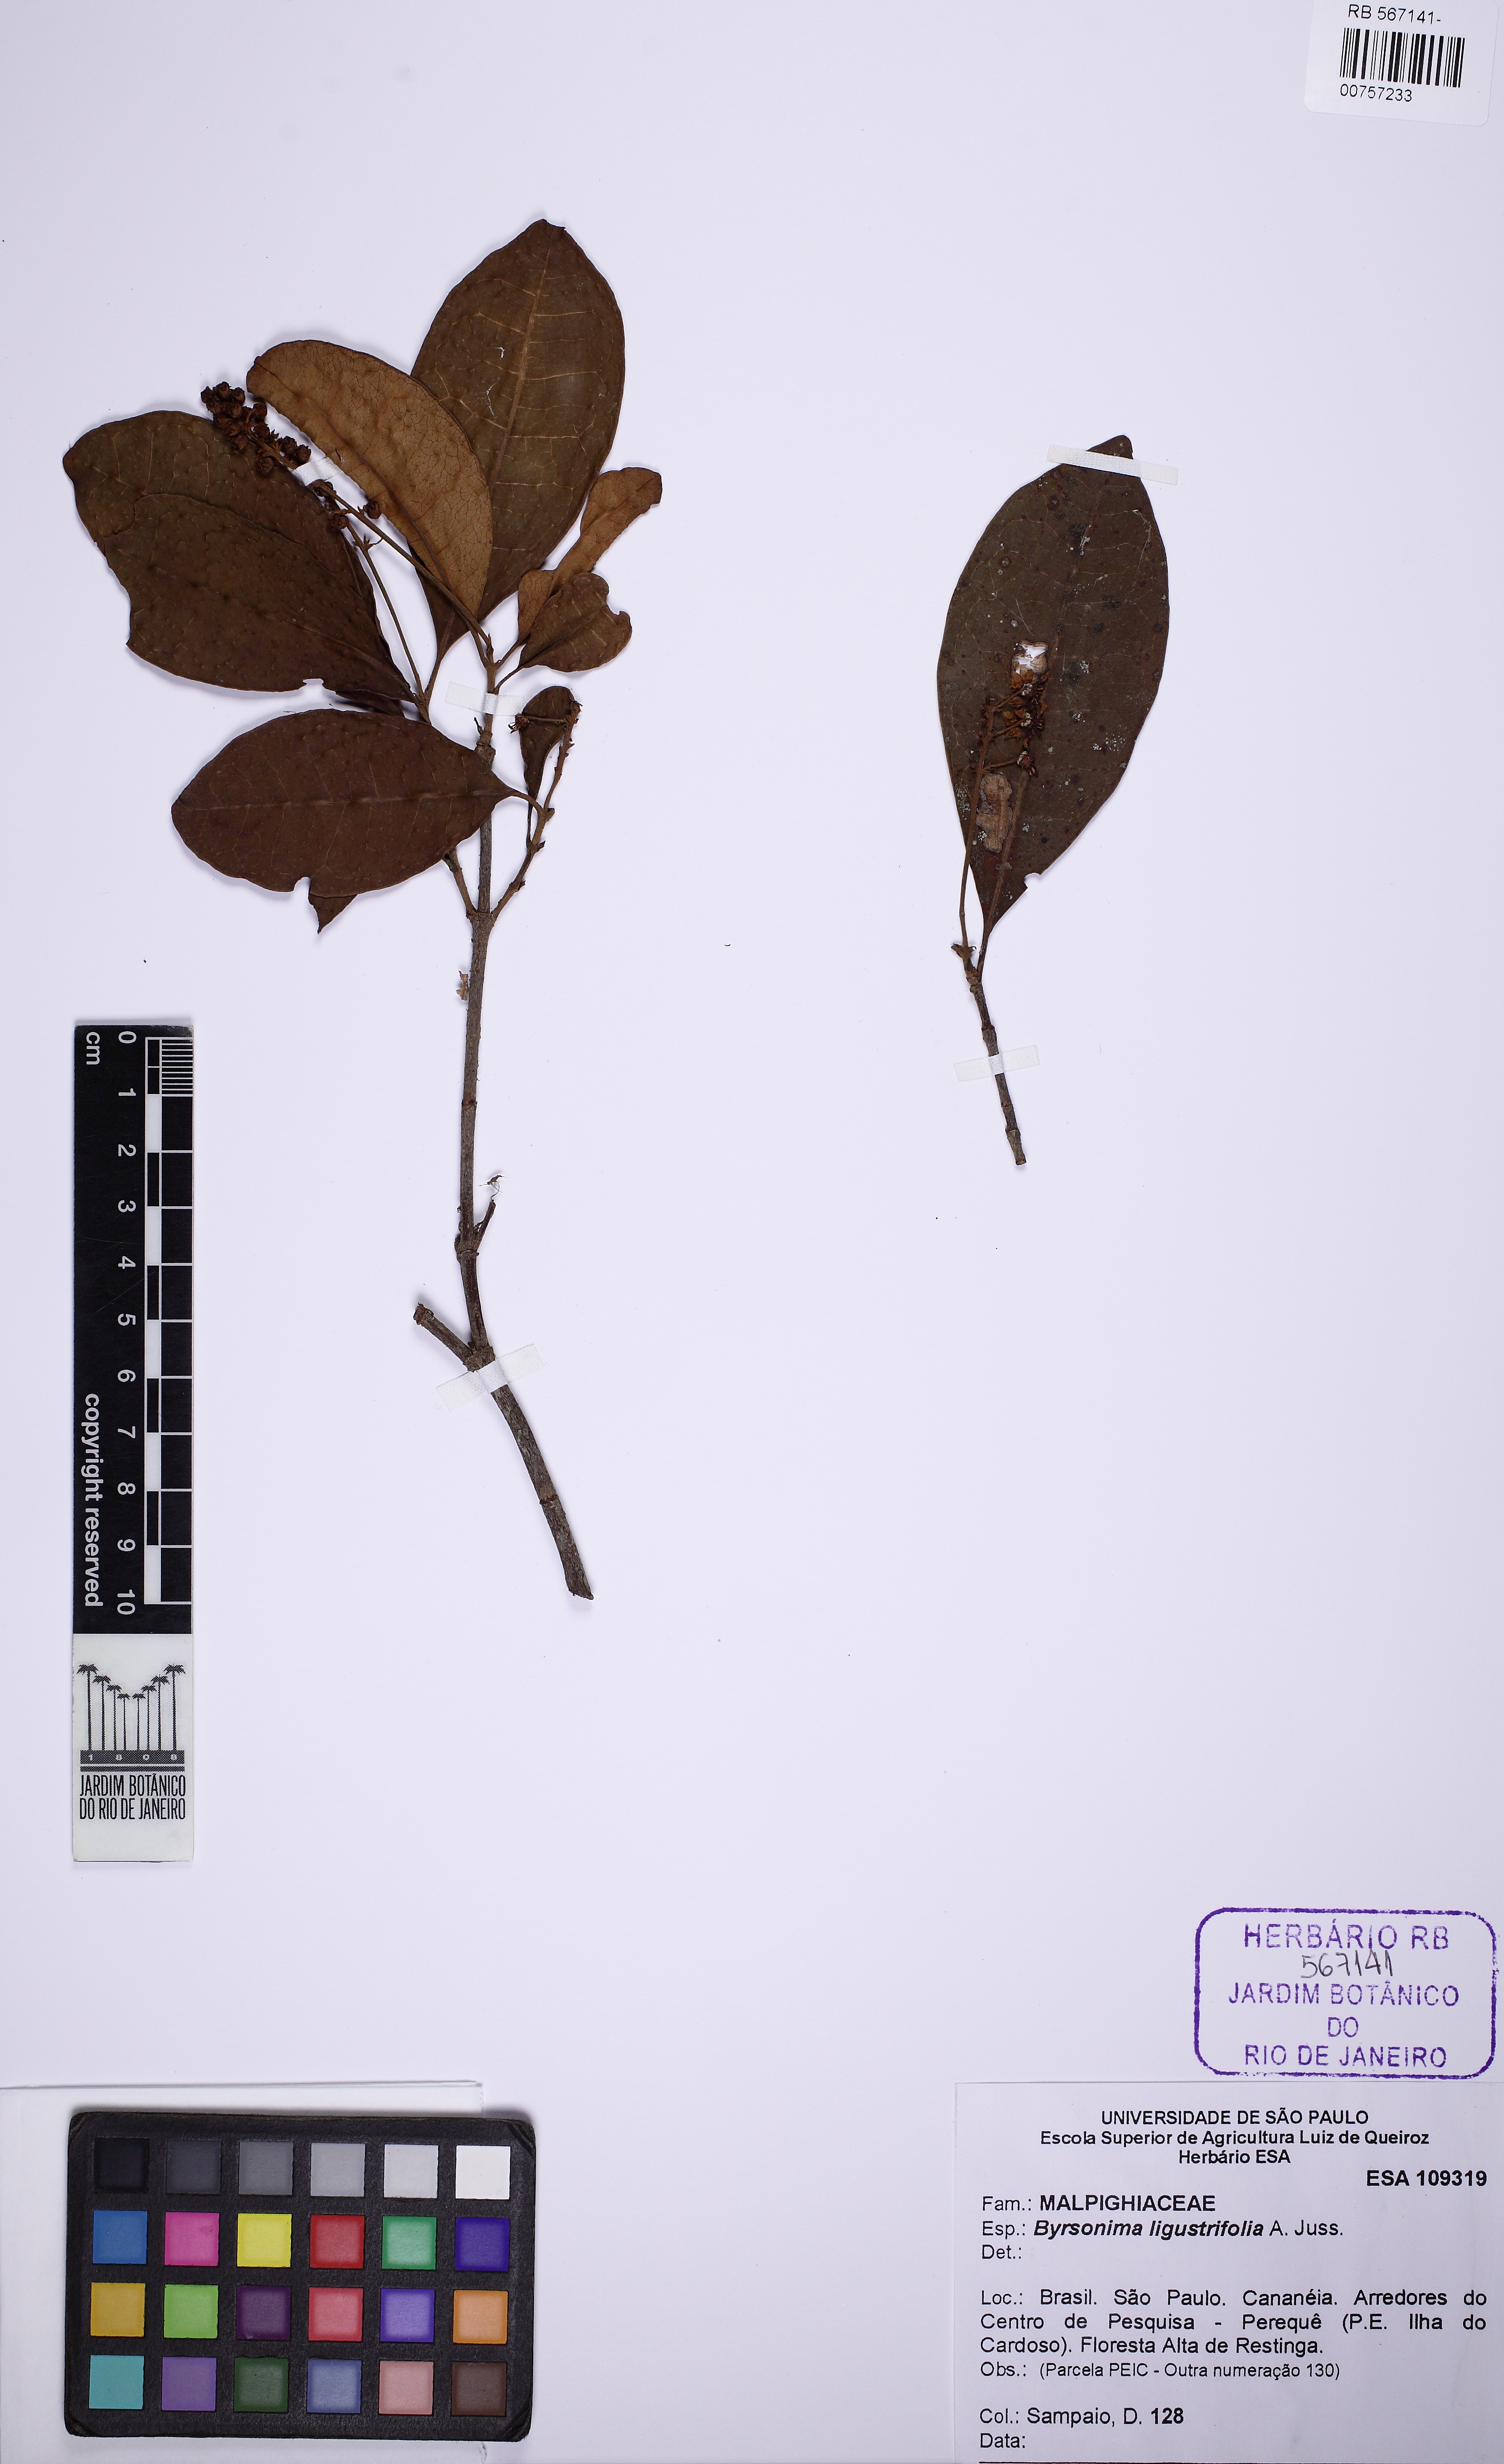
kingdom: Plantae
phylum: Tracheophyta
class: Magnoliopsida
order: Malpighiales
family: Malpighiaceae
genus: Byrsonima
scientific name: Byrsonima ligustrifolia
